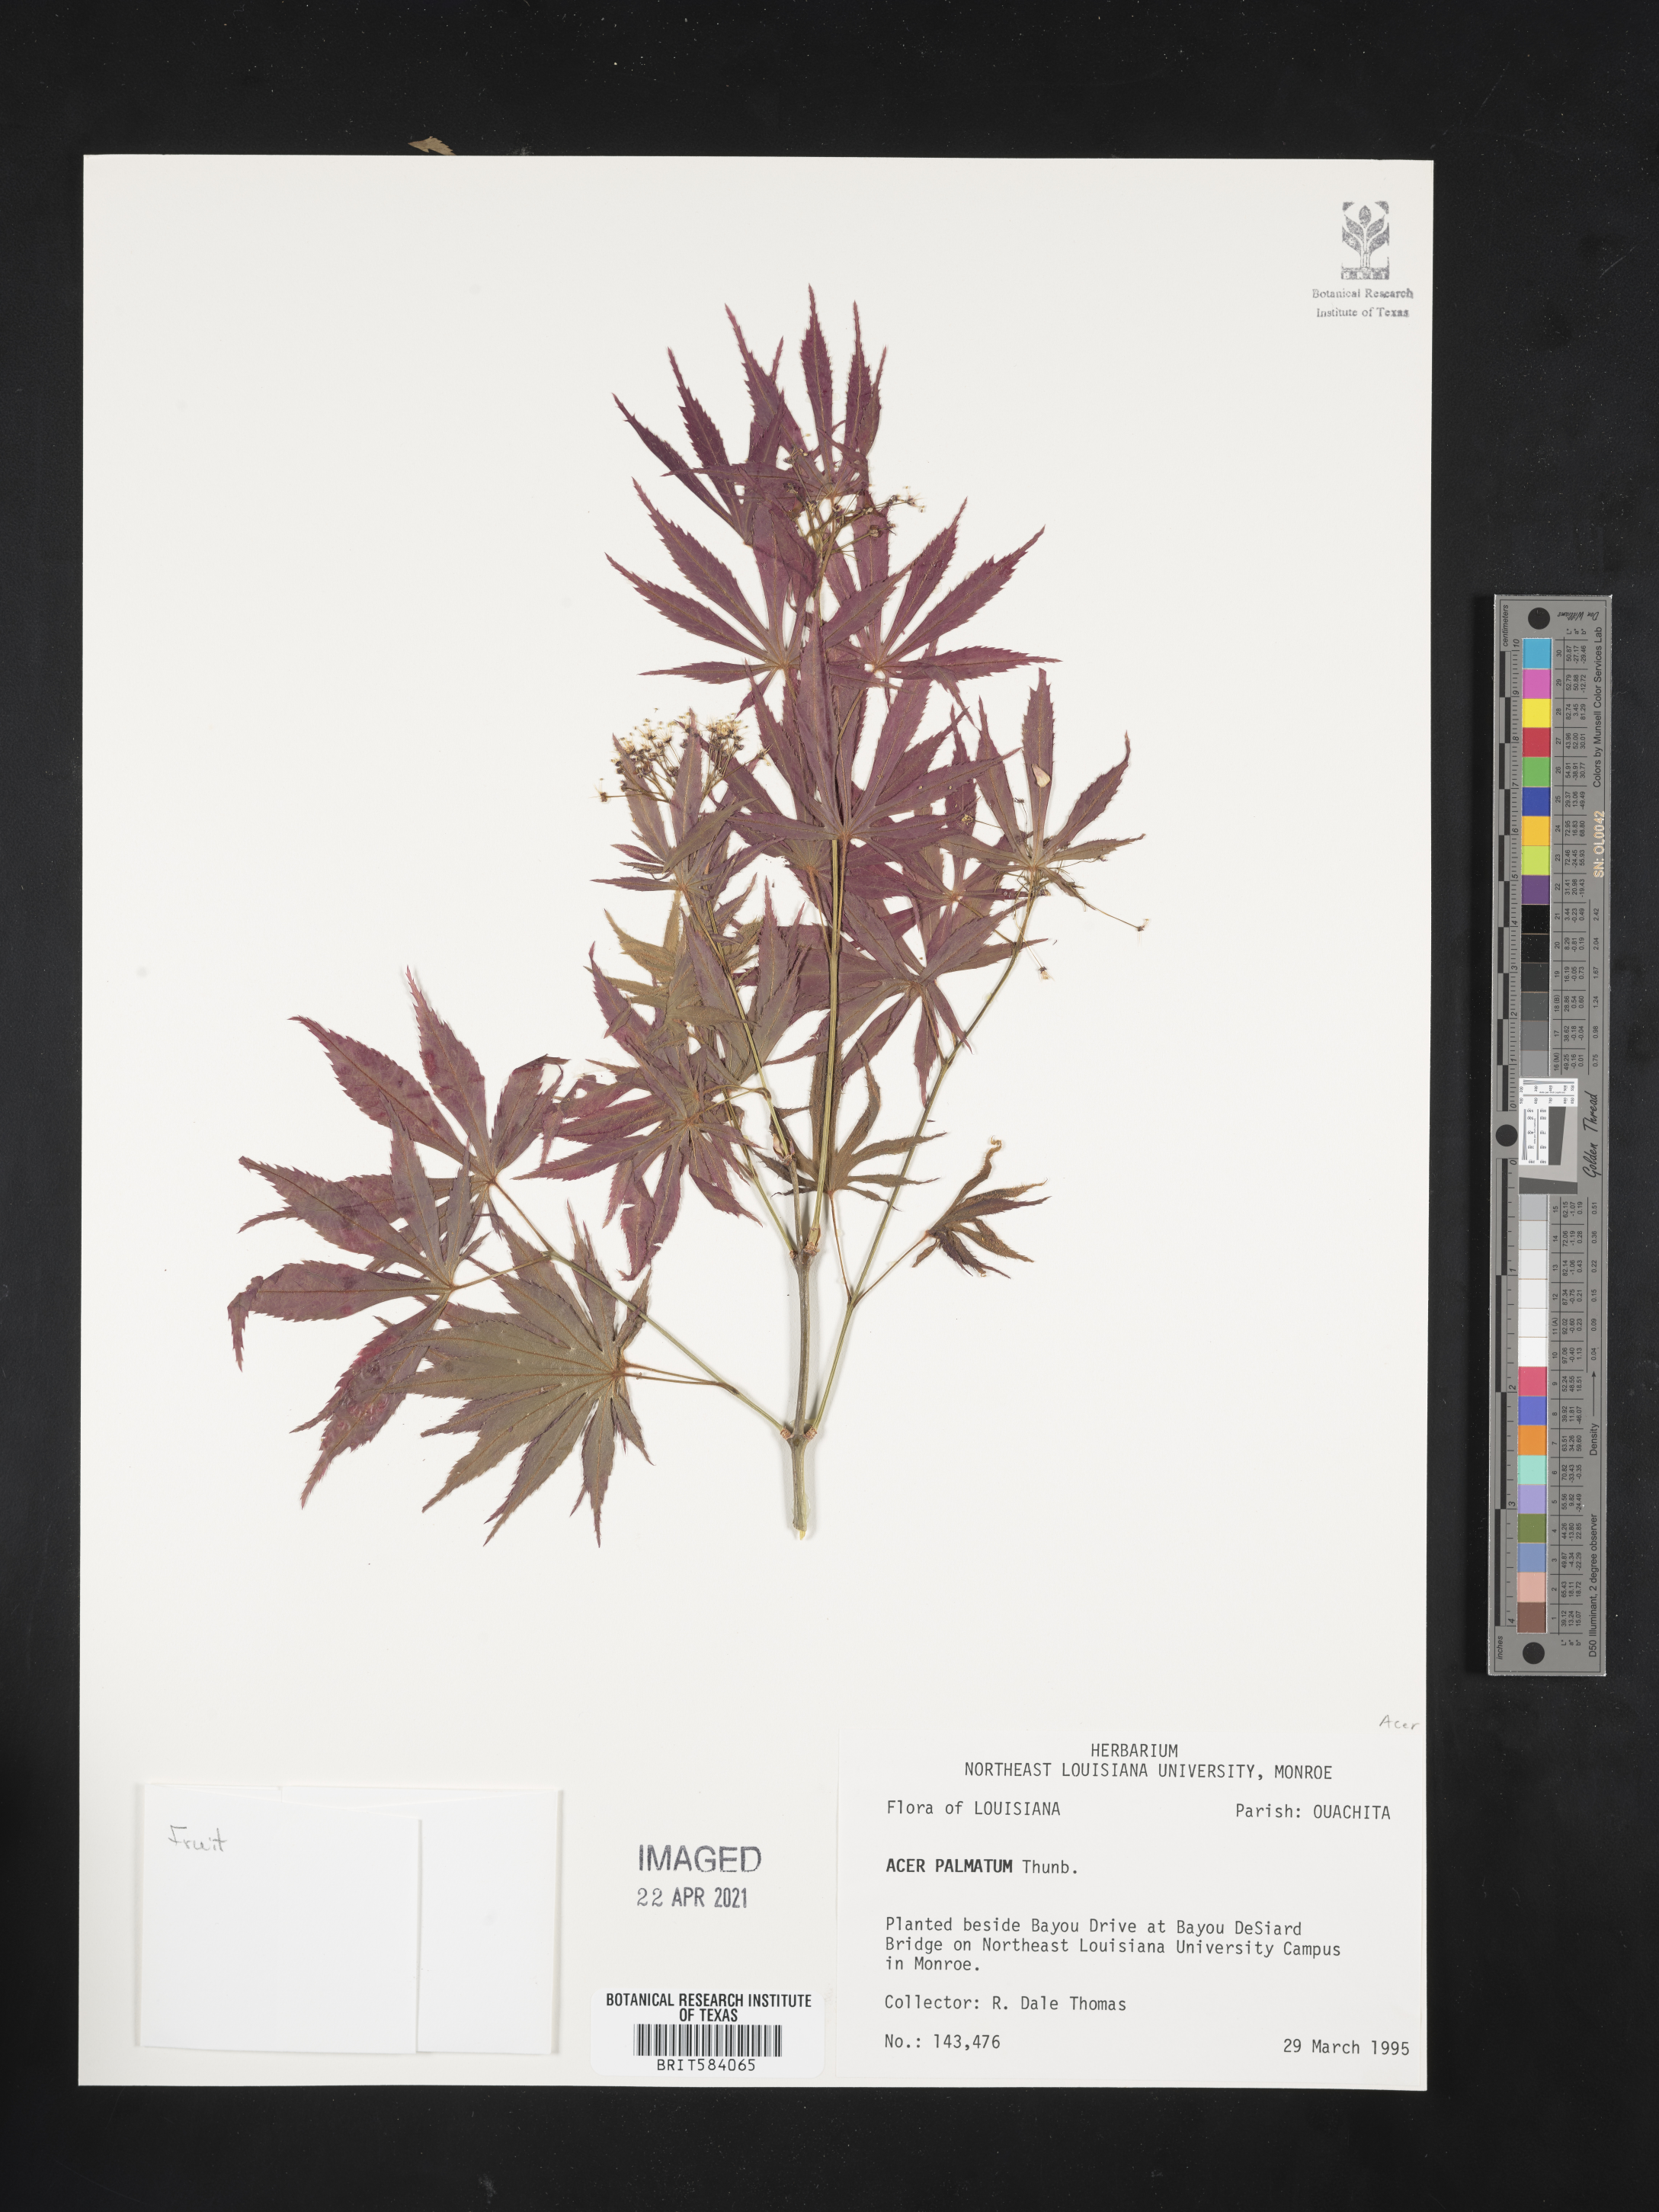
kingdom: Plantae
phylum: Tracheophyta
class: Magnoliopsida
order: Sapindales
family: Sapindaceae
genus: Acer
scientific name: Acer palmatum
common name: Japanese maple
